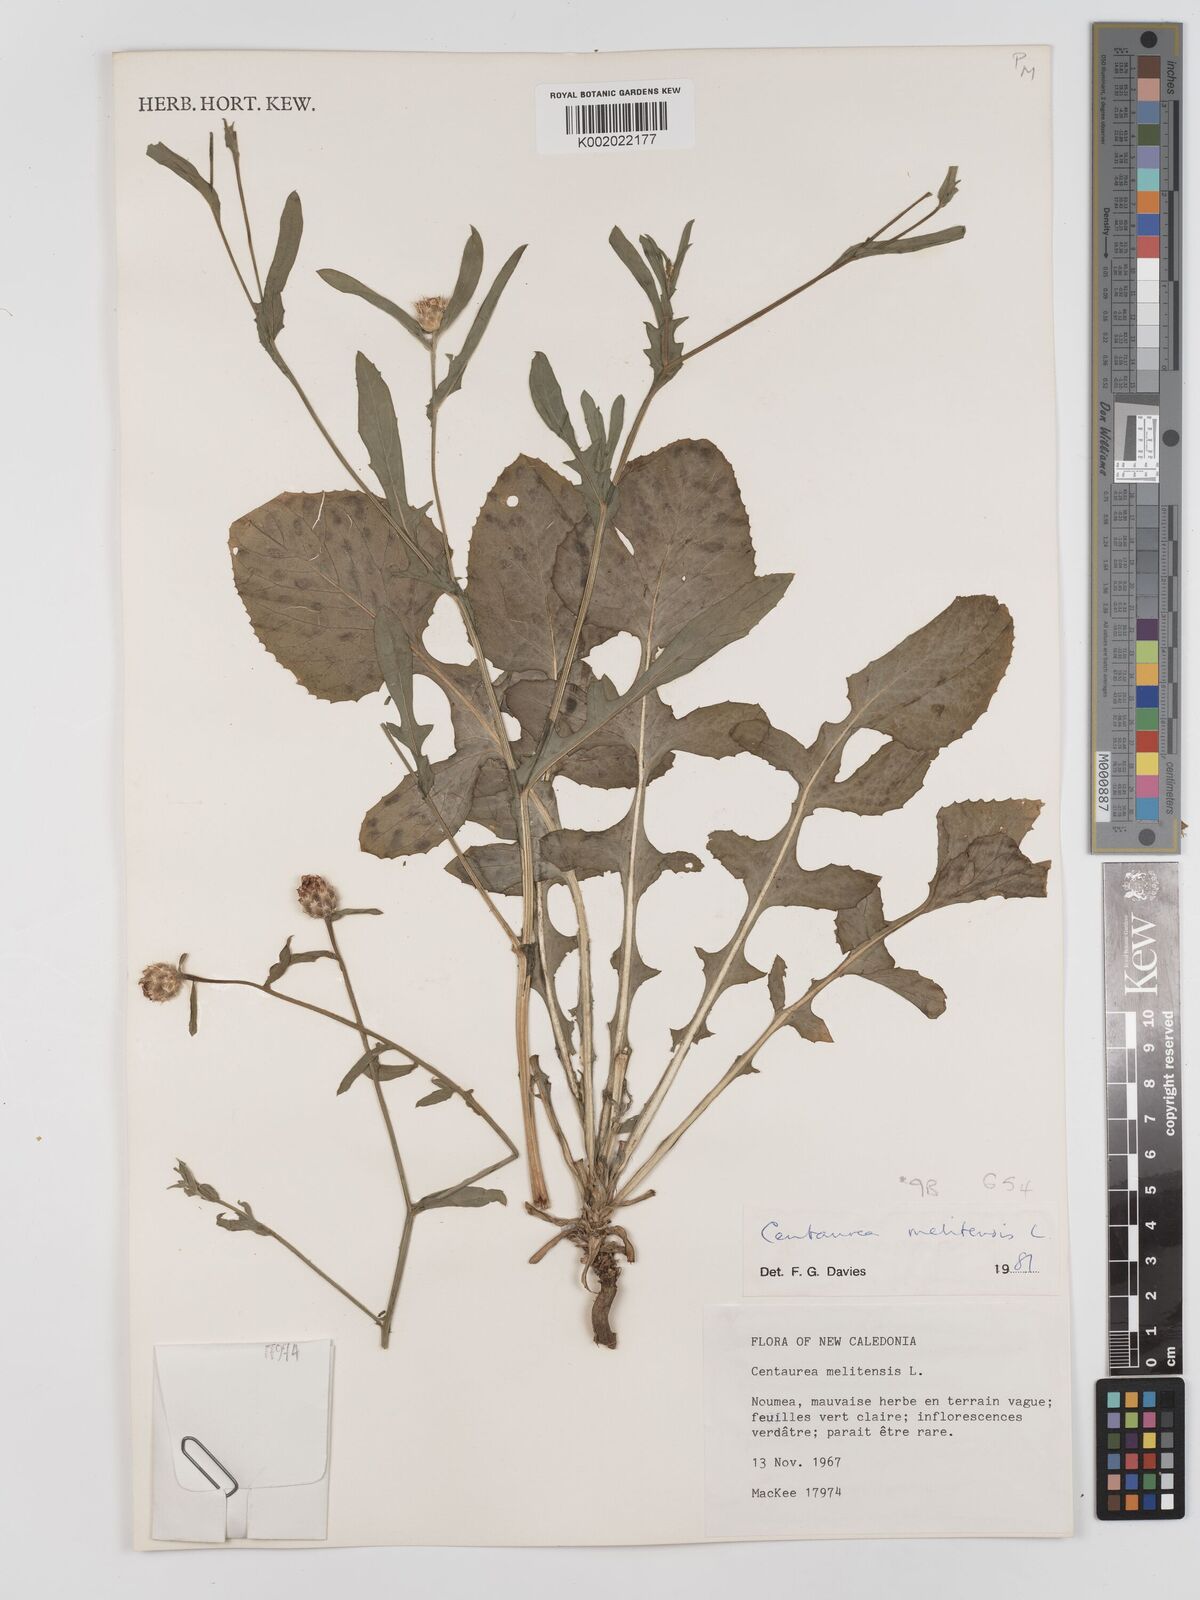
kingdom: Plantae
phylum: Tracheophyta
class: Magnoliopsida
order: Asterales
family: Asteraceae
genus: Centaurea
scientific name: Centaurea melitensis
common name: Maltese star-thistle
